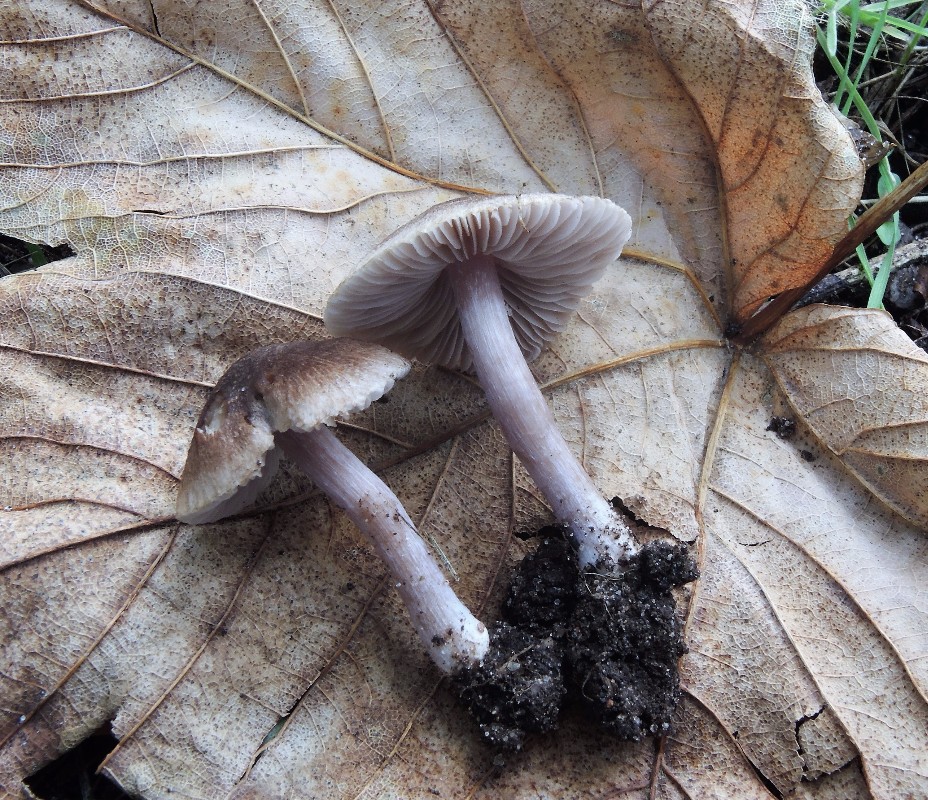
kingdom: Fungi
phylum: Basidiomycota
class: Agaricomycetes
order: Agaricales
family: Inocybaceae
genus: Inocybe
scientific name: Inocybe paleoveneta
